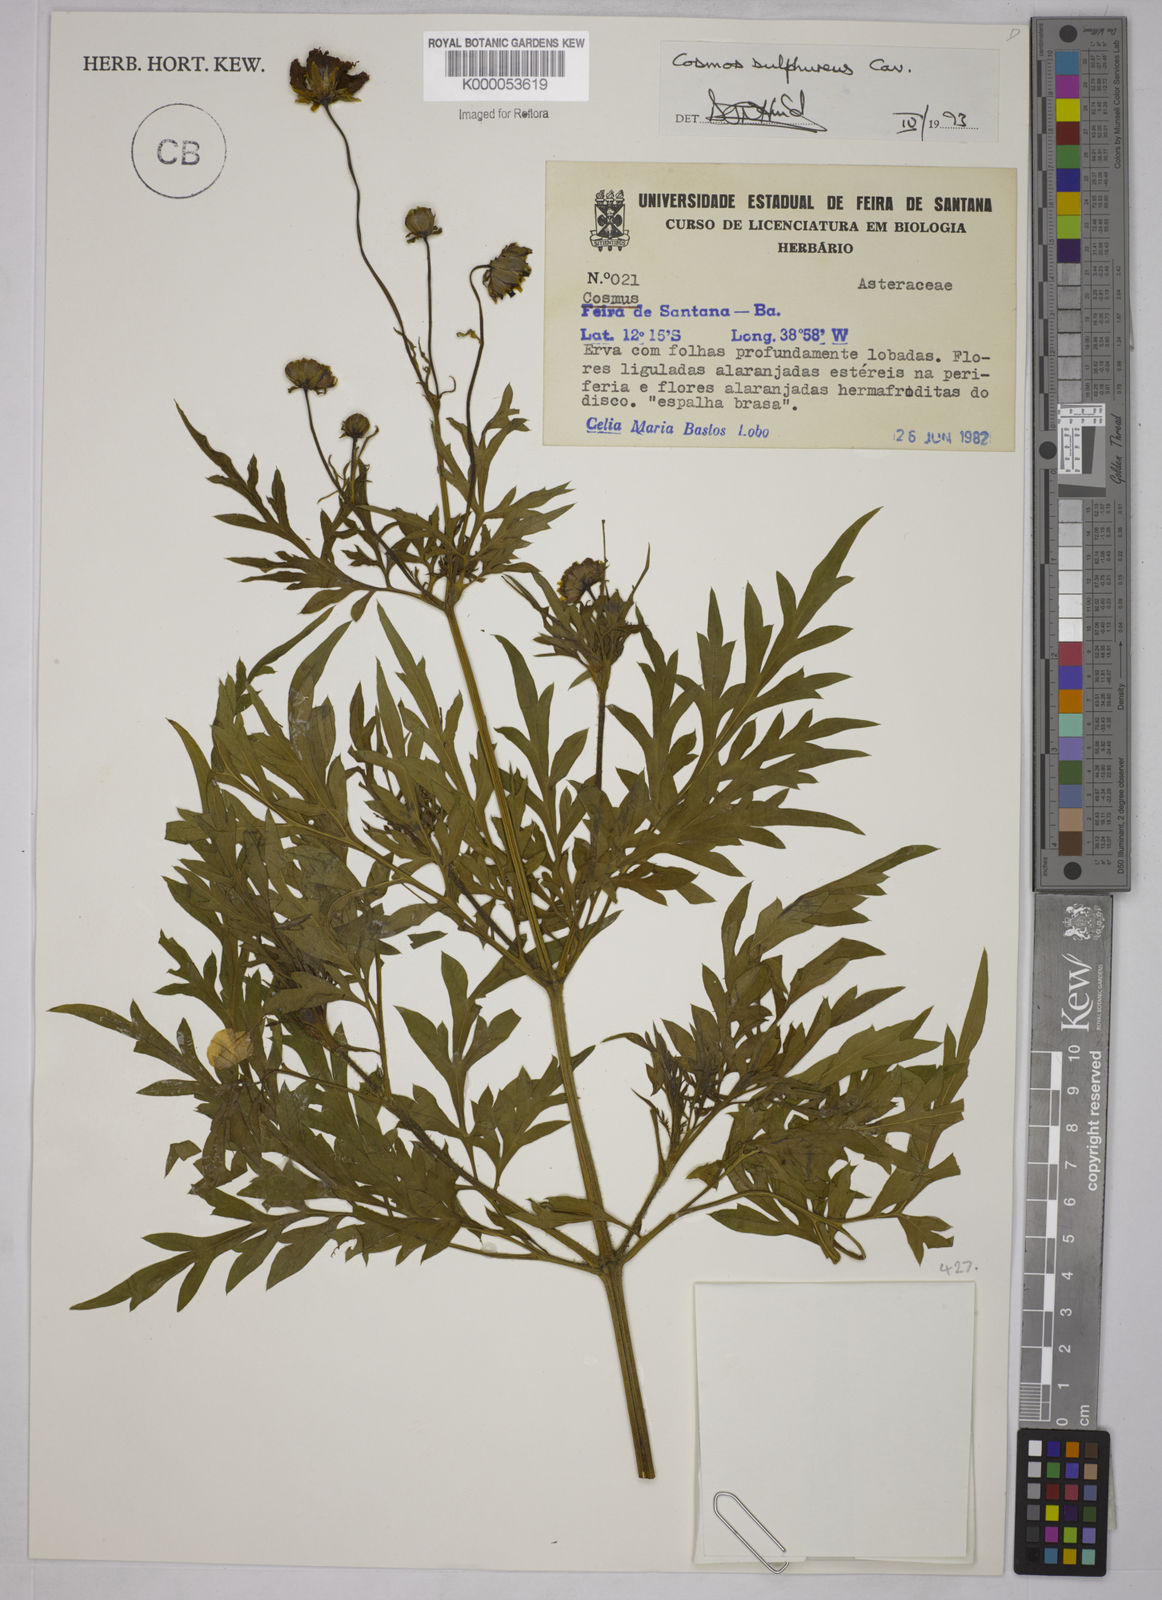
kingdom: Plantae
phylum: Tracheophyta
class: Magnoliopsida
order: Asterales
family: Asteraceae
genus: Cosmos
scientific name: Cosmos sulphureus
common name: Sulphur cosmos
